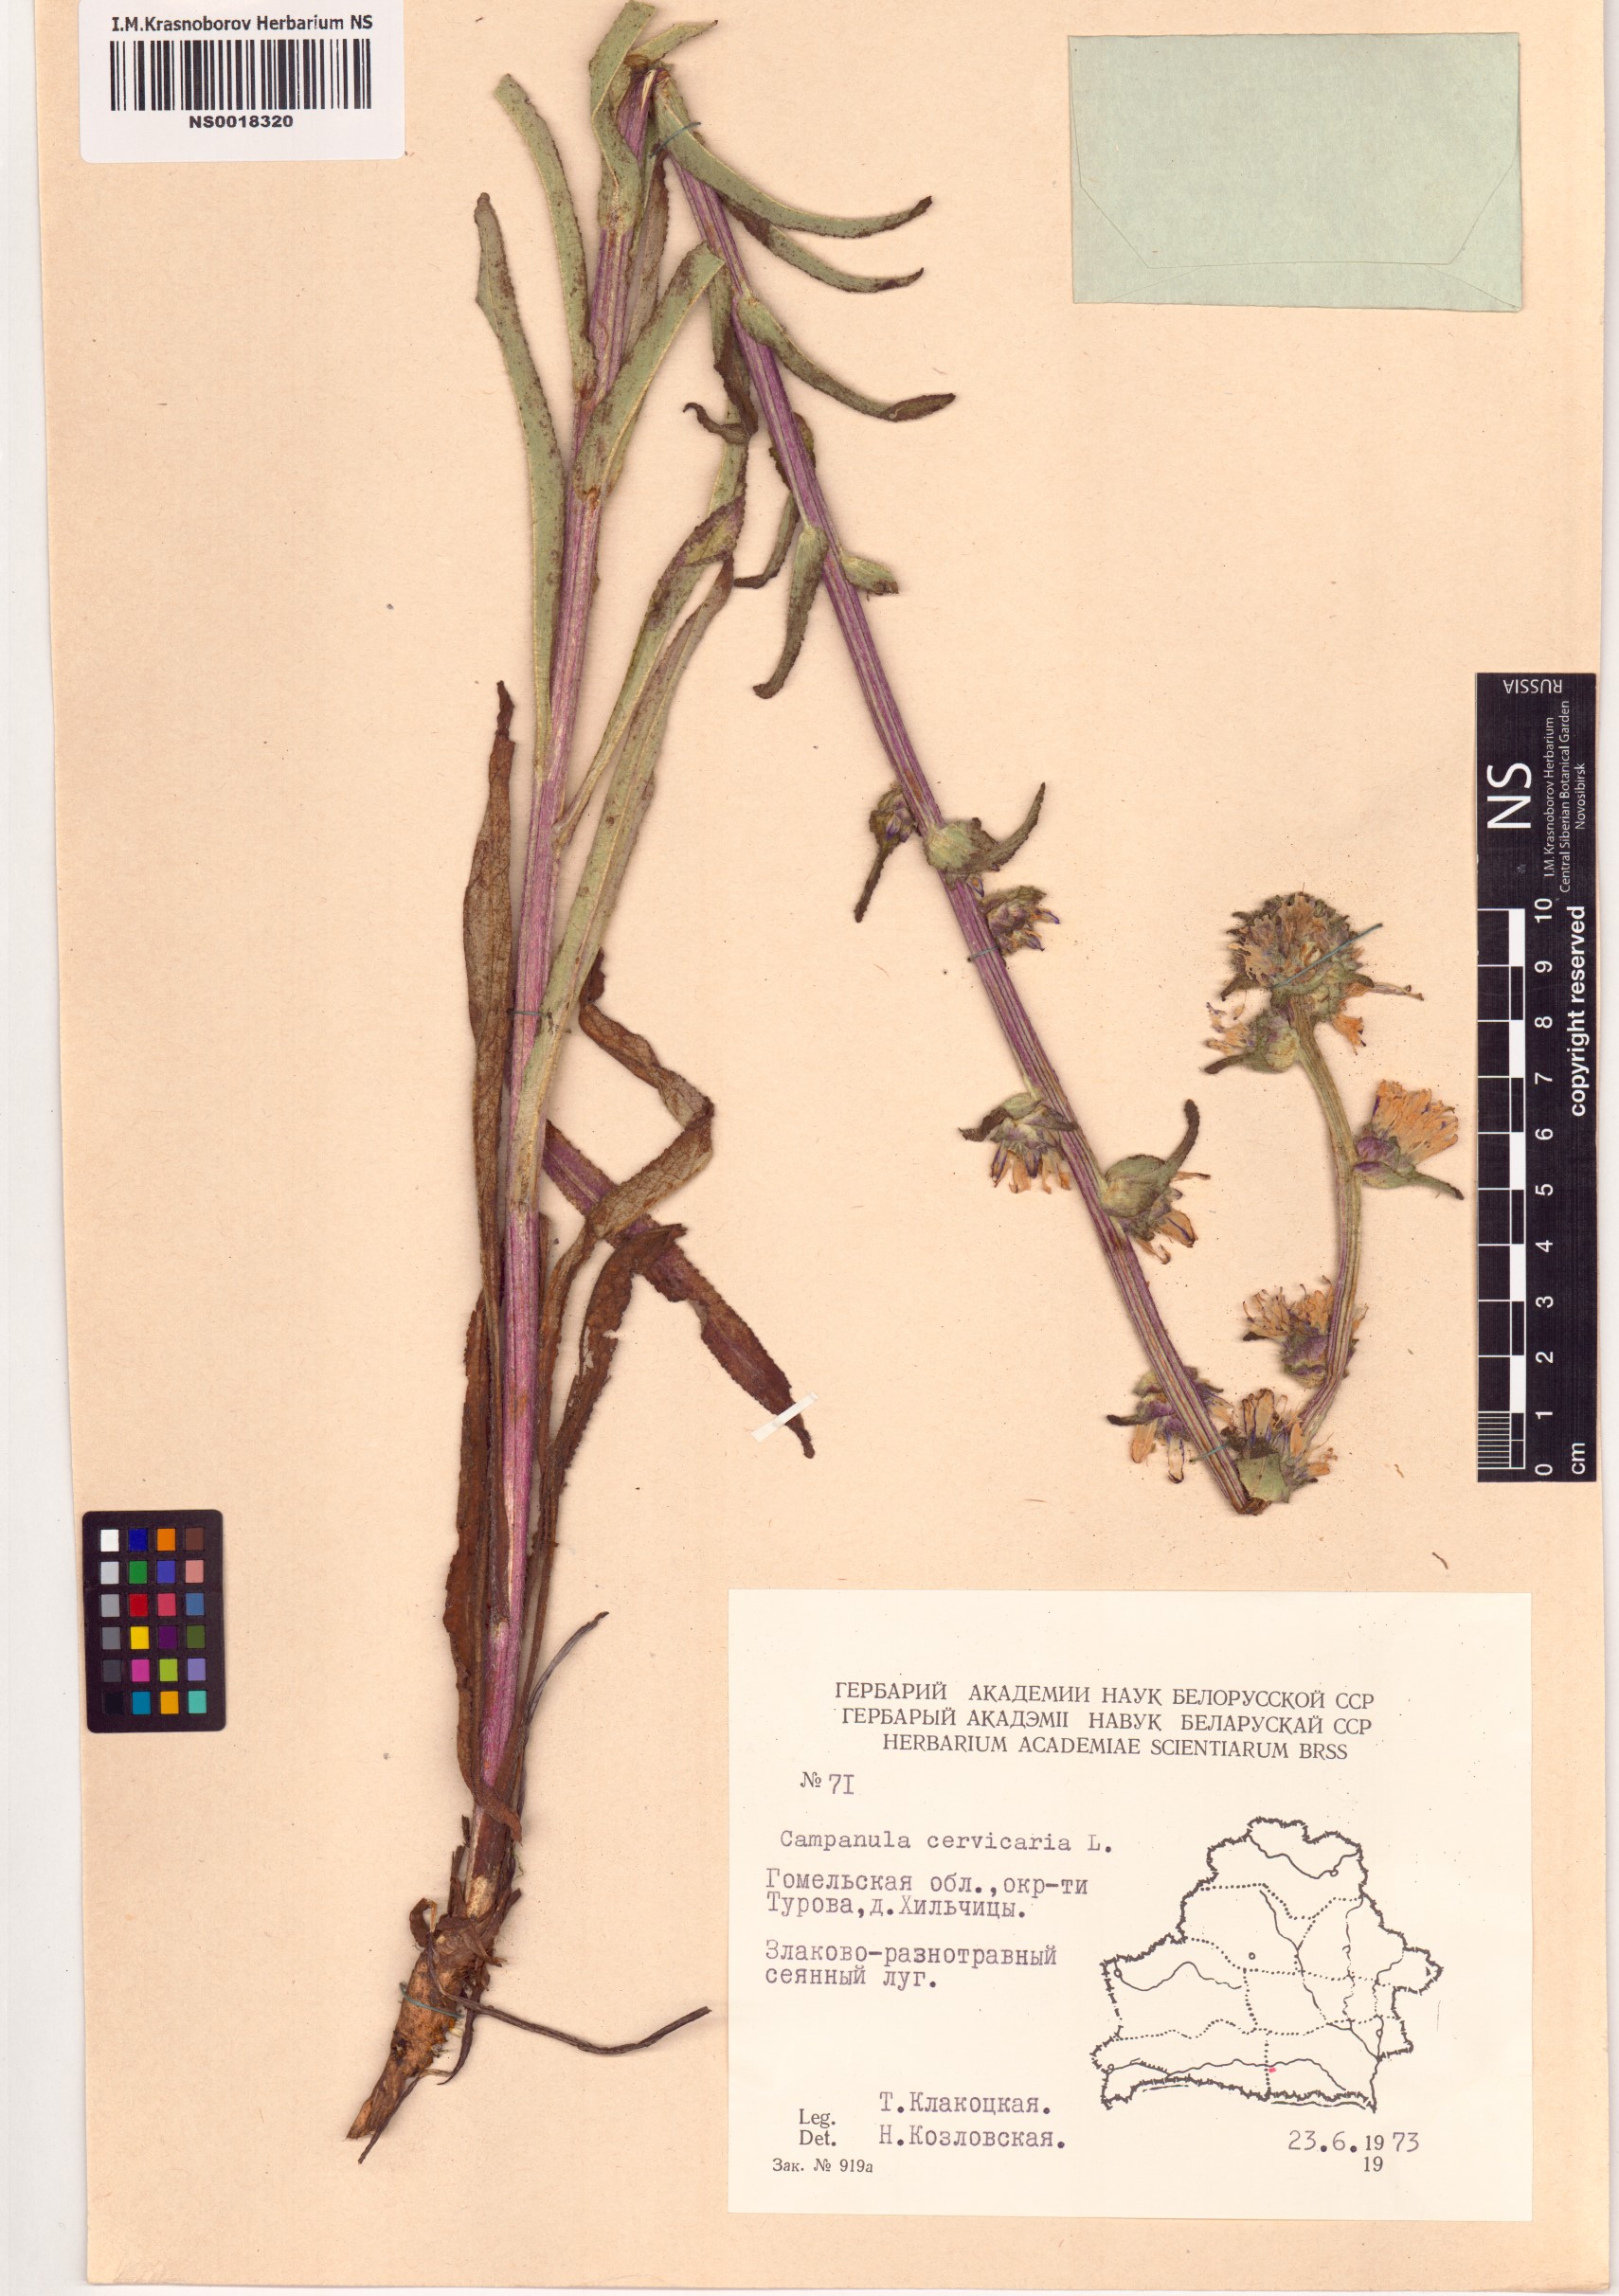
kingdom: Plantae
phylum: Tracheophyta
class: Magnoliopsida
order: Asterales
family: Campanulaceae
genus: Campanula
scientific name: Campanula cervicaria
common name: Bristly bellflower
